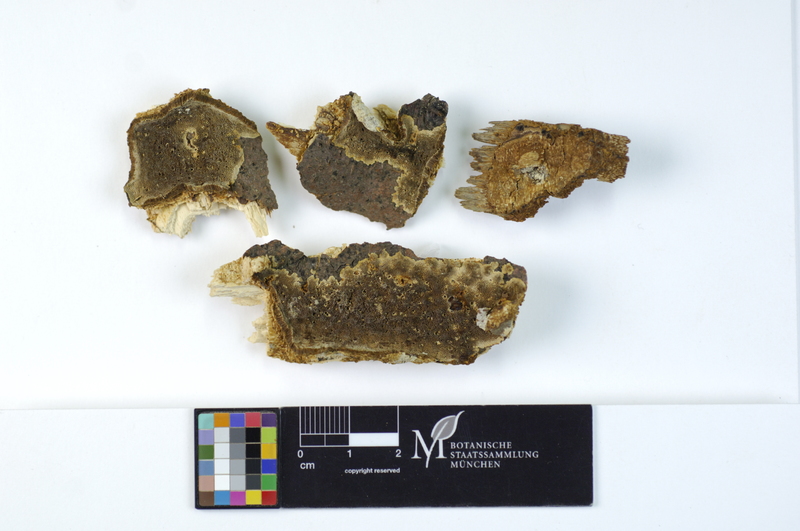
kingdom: Plantae
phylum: Tracheophyta
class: Magnoliopsida
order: Fagales
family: Fagaceae
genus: Fagus
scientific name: Fagus sylvatica
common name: Beech
